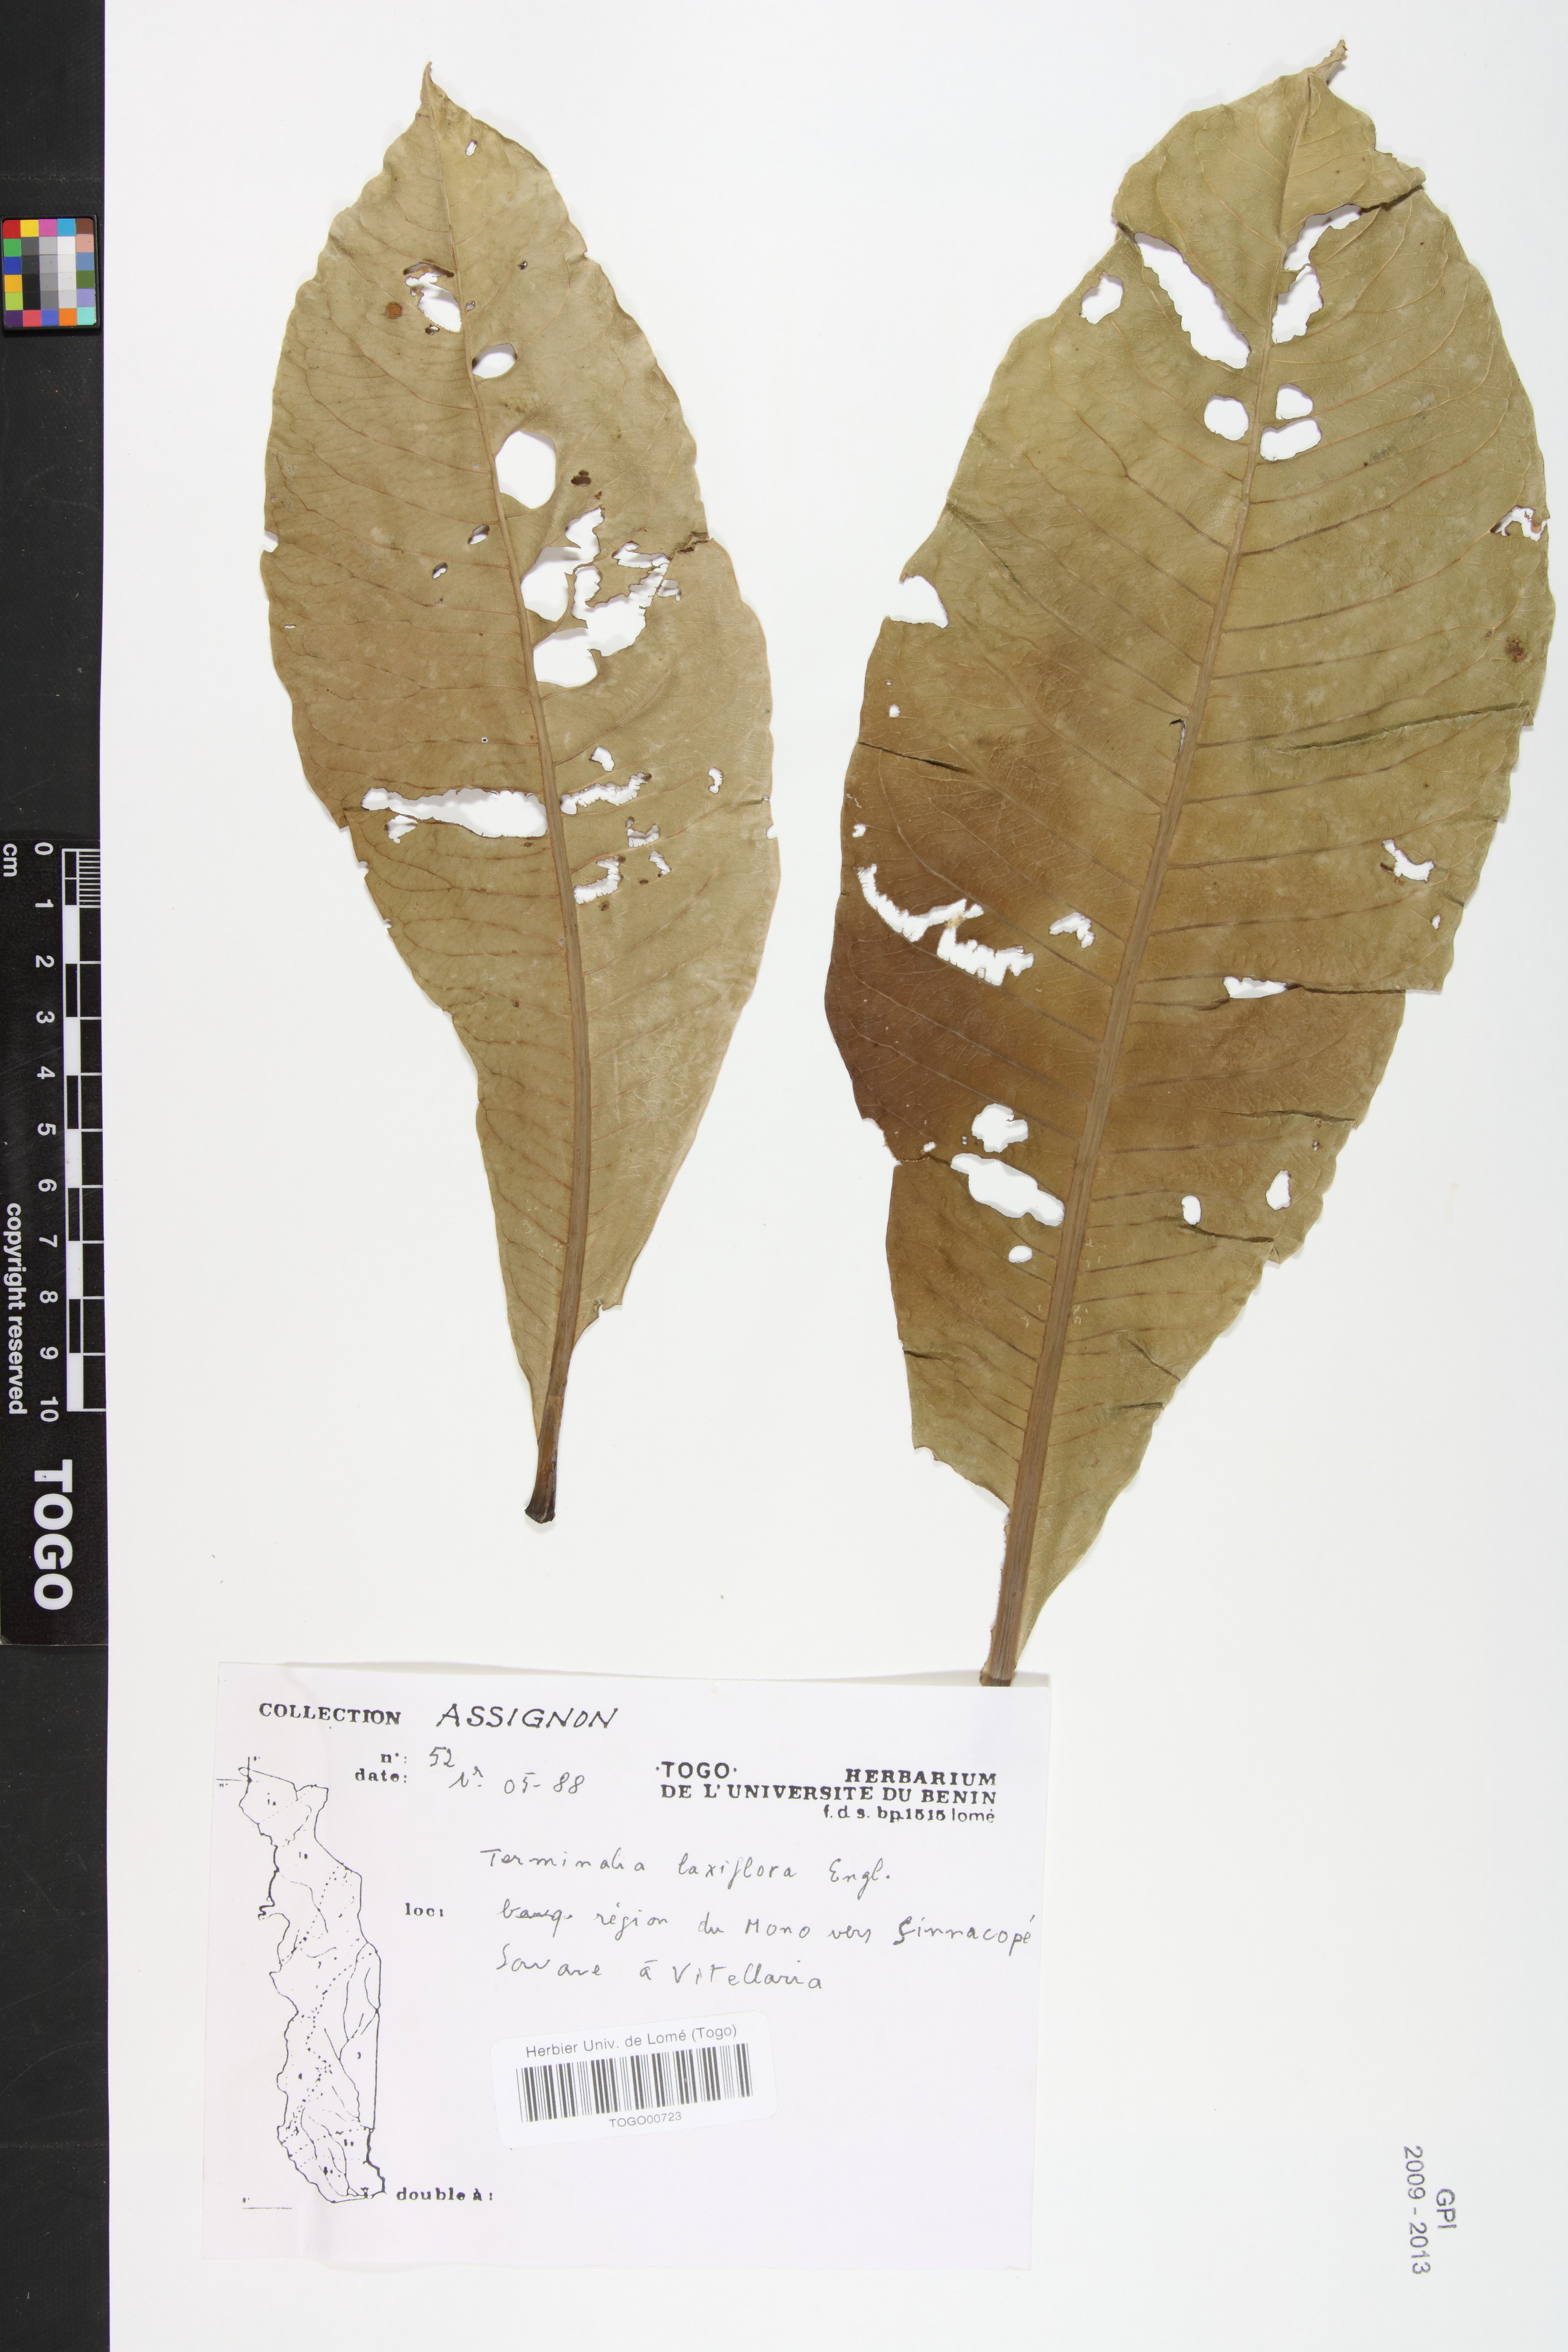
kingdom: Plantae
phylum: Tracheophyta
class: Magnoliopsida
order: Myrtales
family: Combretaceae
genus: Terminalia
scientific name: Terminalia laxiflora
